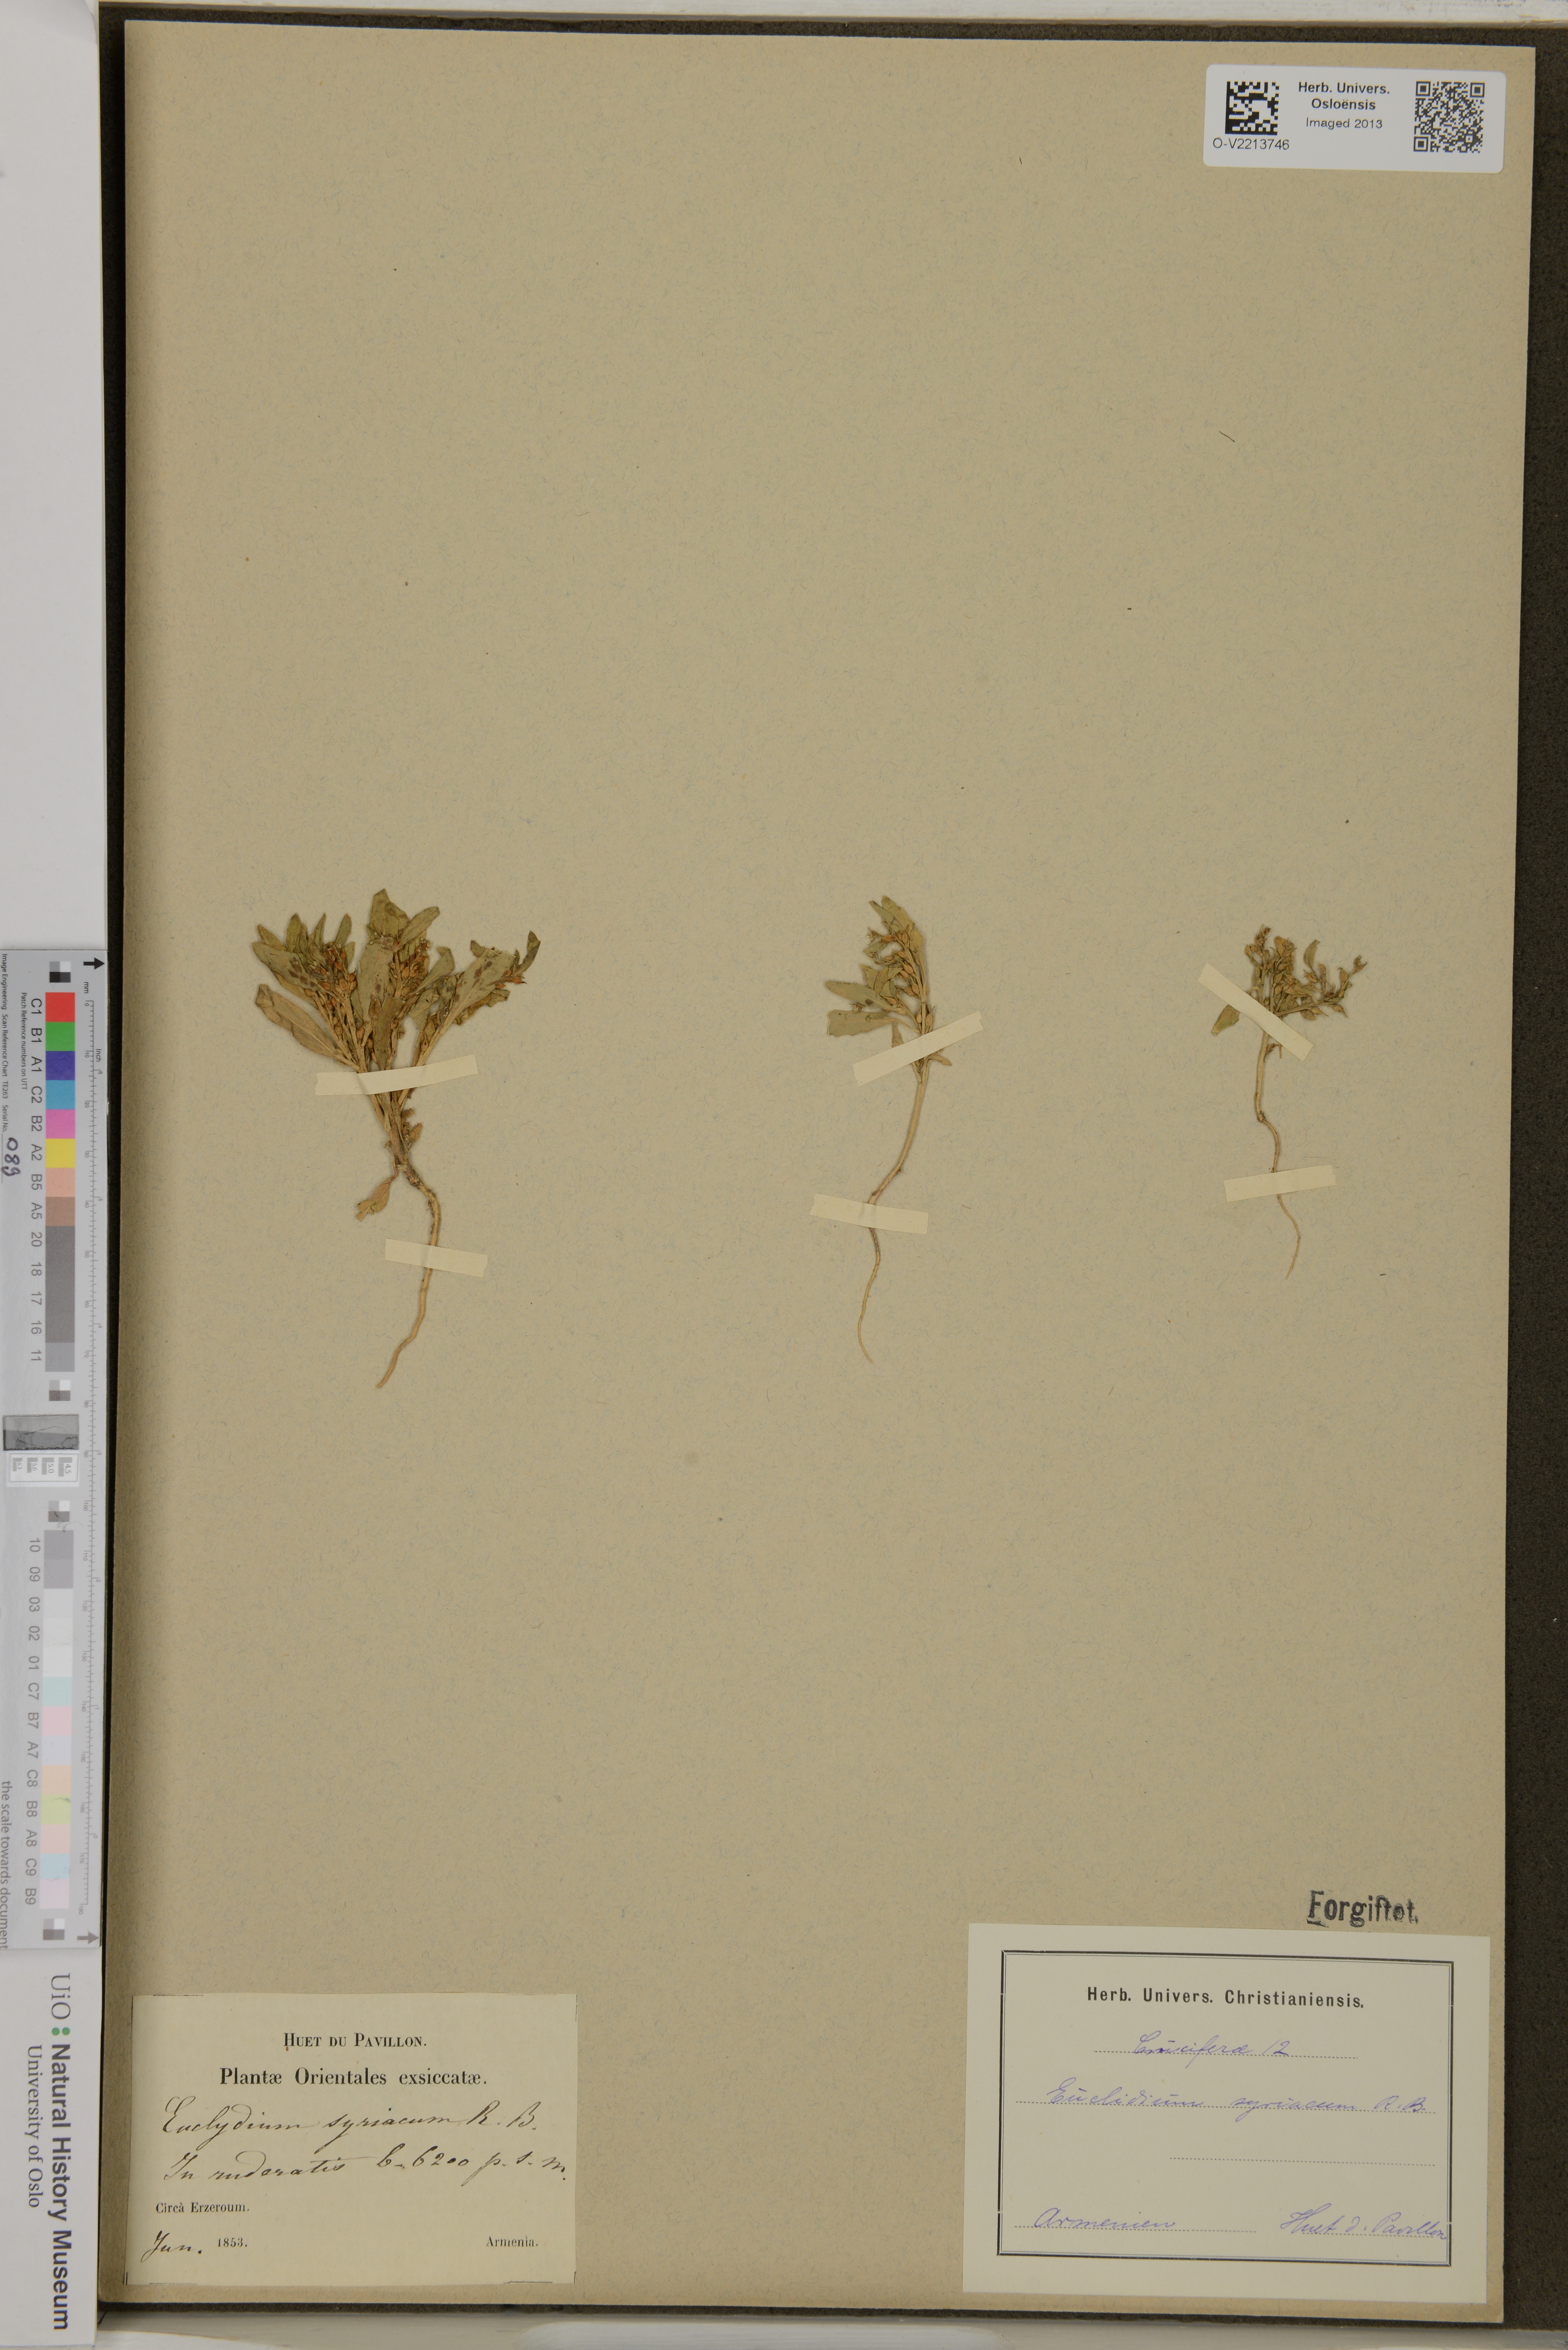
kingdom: Plantae
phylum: Tracheophyta
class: Magnoliopsida
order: Brassicales
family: Brassicaceae
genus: Euclidium
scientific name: Euclidium syriacum
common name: Syrian mustard
